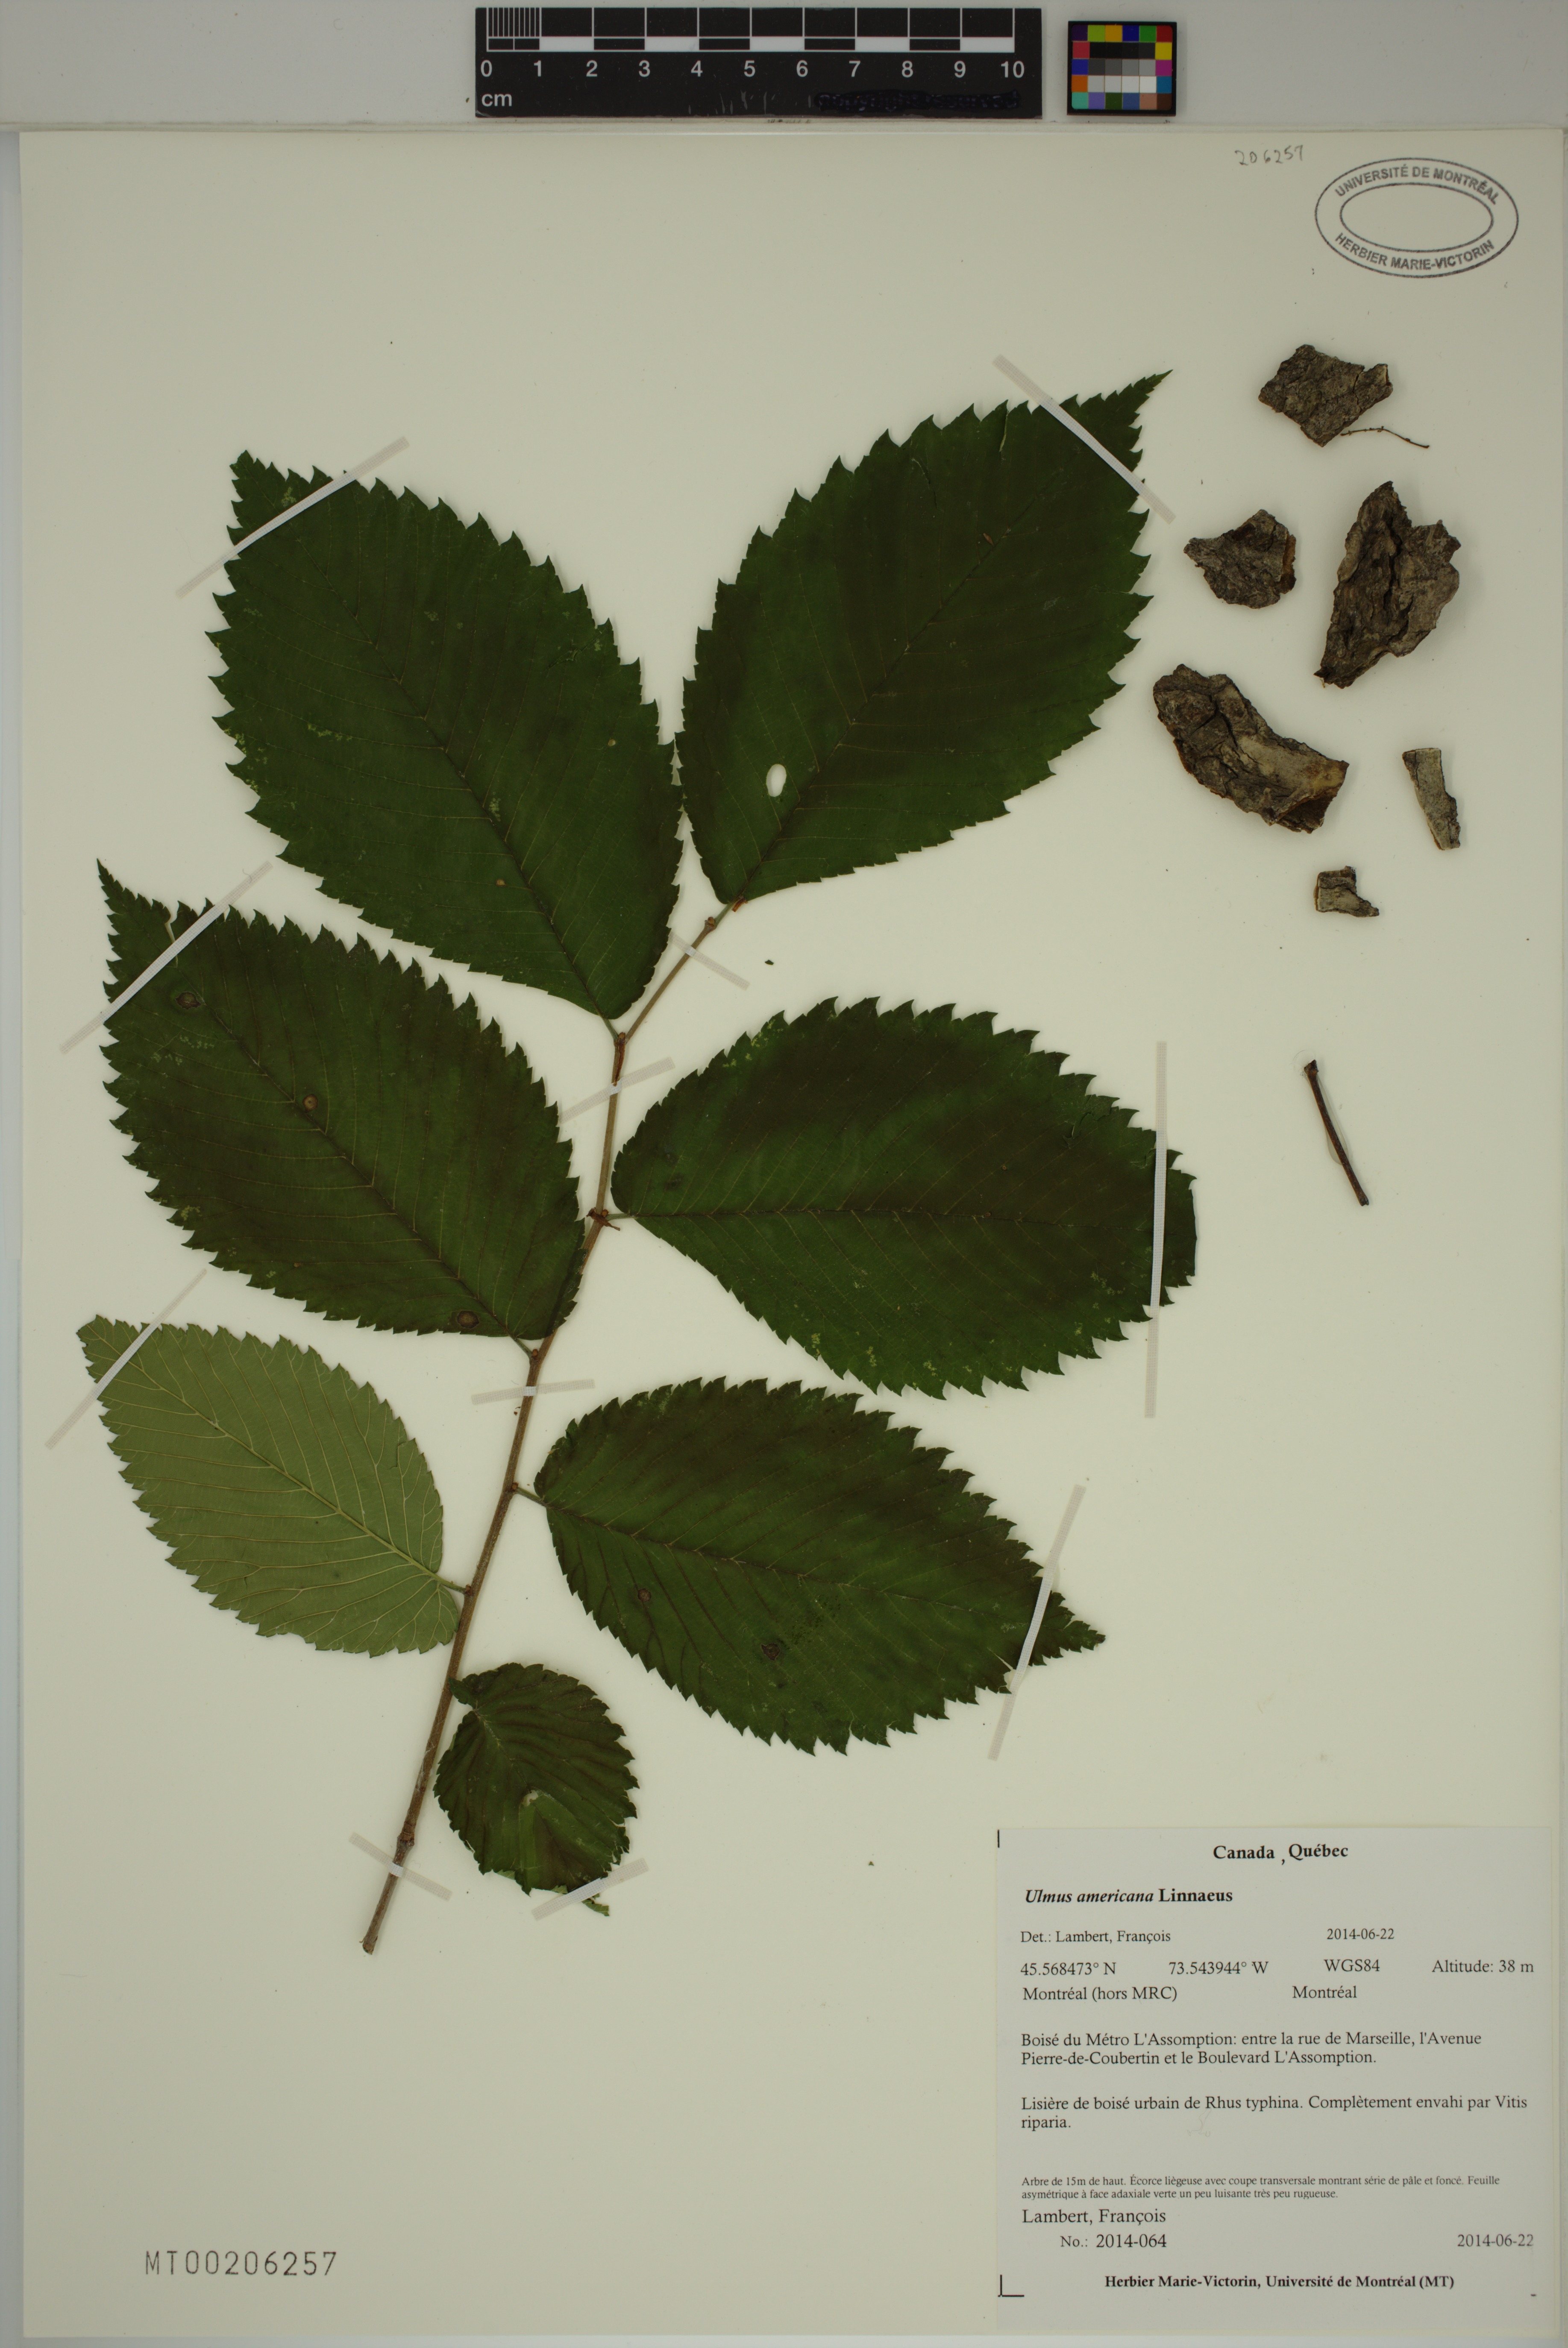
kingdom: Plantae
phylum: Tracheophyta
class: Magnoliopsida
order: Rosales
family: Ulmaceae
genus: Ulmus
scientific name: Ulmus americana
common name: American elm
